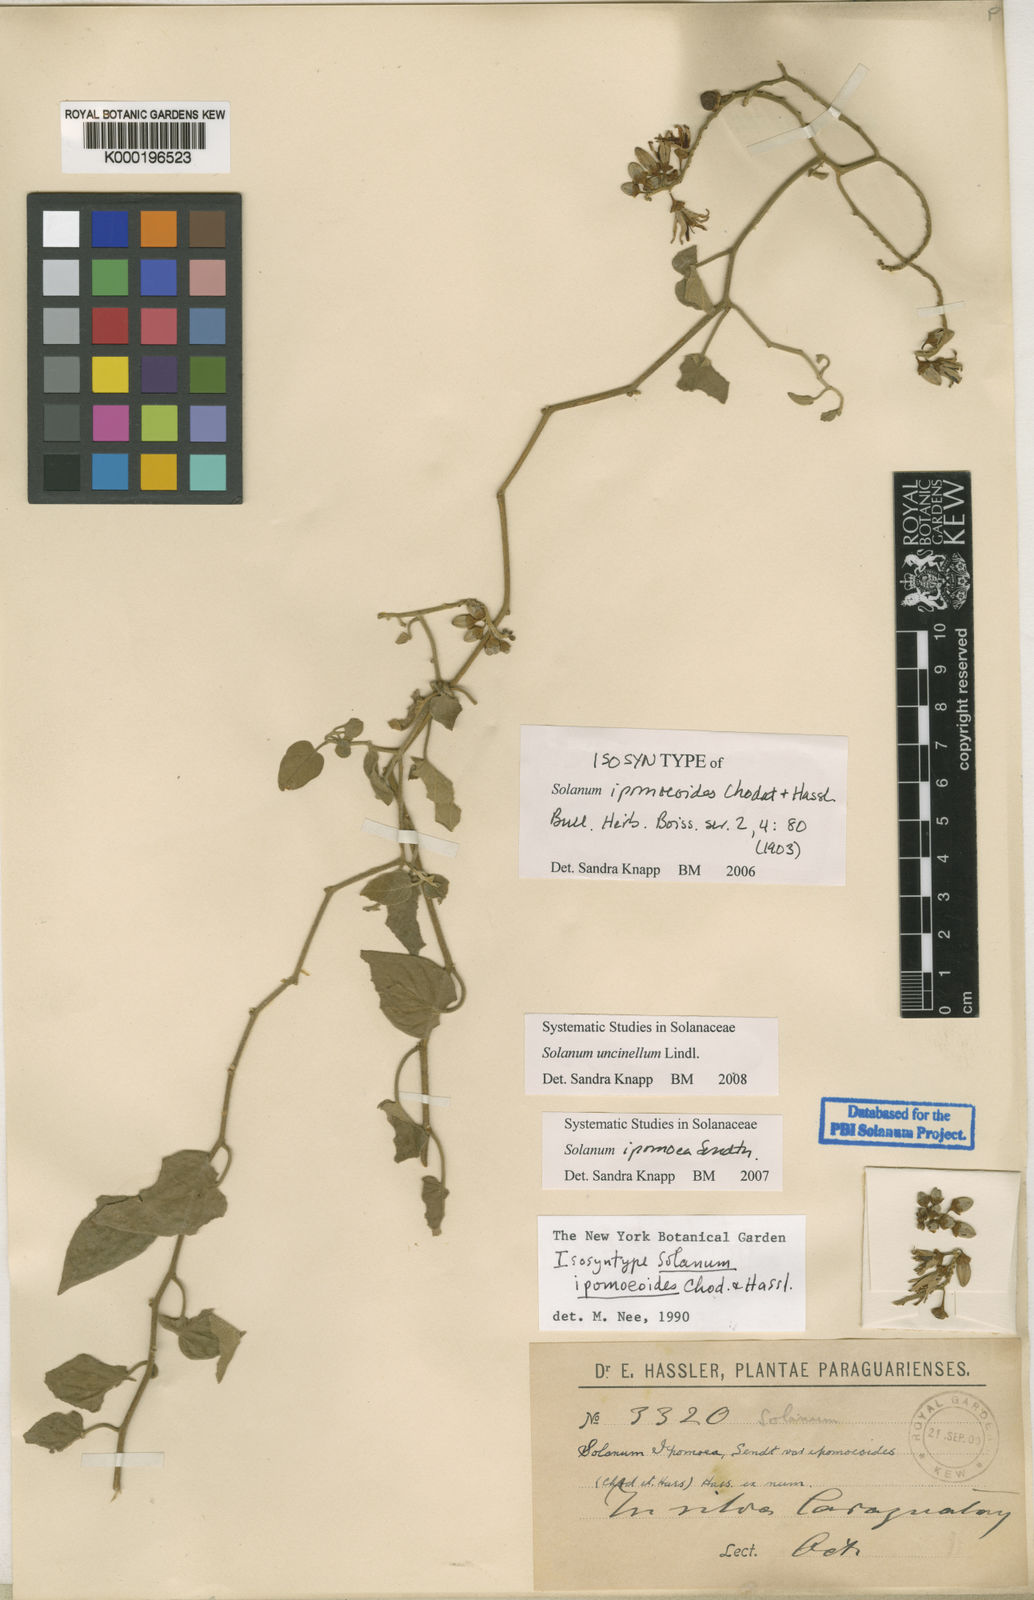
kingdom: Plantae
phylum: Tracheophyta
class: Magnoliopsida
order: Solanales
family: Solanaceae
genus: Solanum
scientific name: Solanum uncinellum
